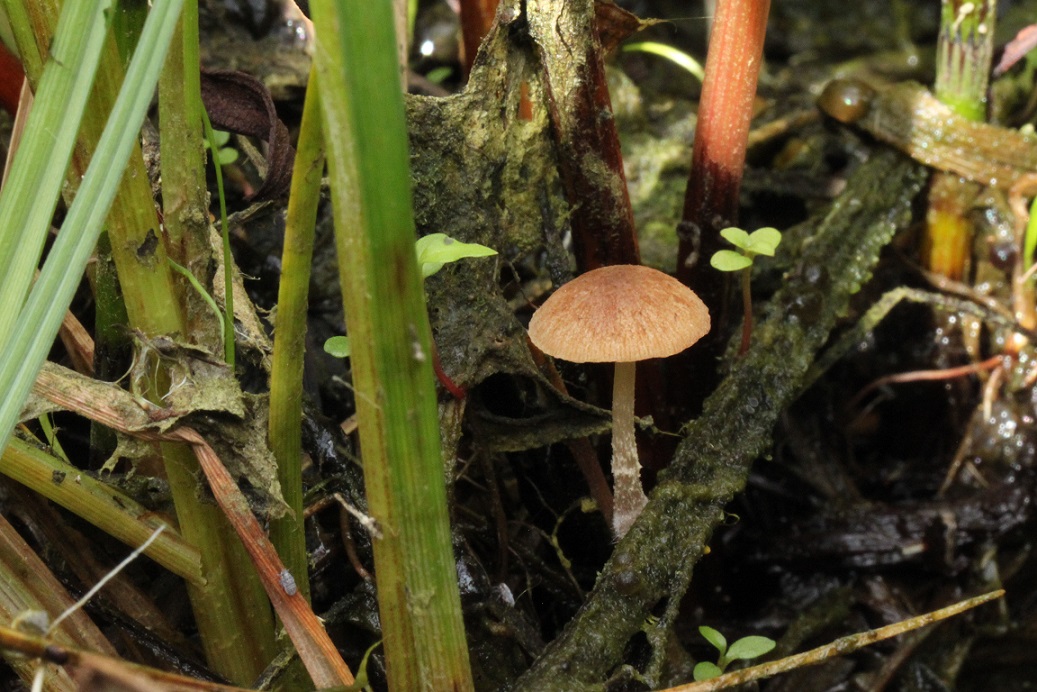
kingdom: Fungi
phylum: Basidiomycota
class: Agaricomycetes
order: Agaricales
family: Psathyrellaceae
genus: Candolleomyces
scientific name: Candolleomyces typhae
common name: dunhammer-mørkhat
